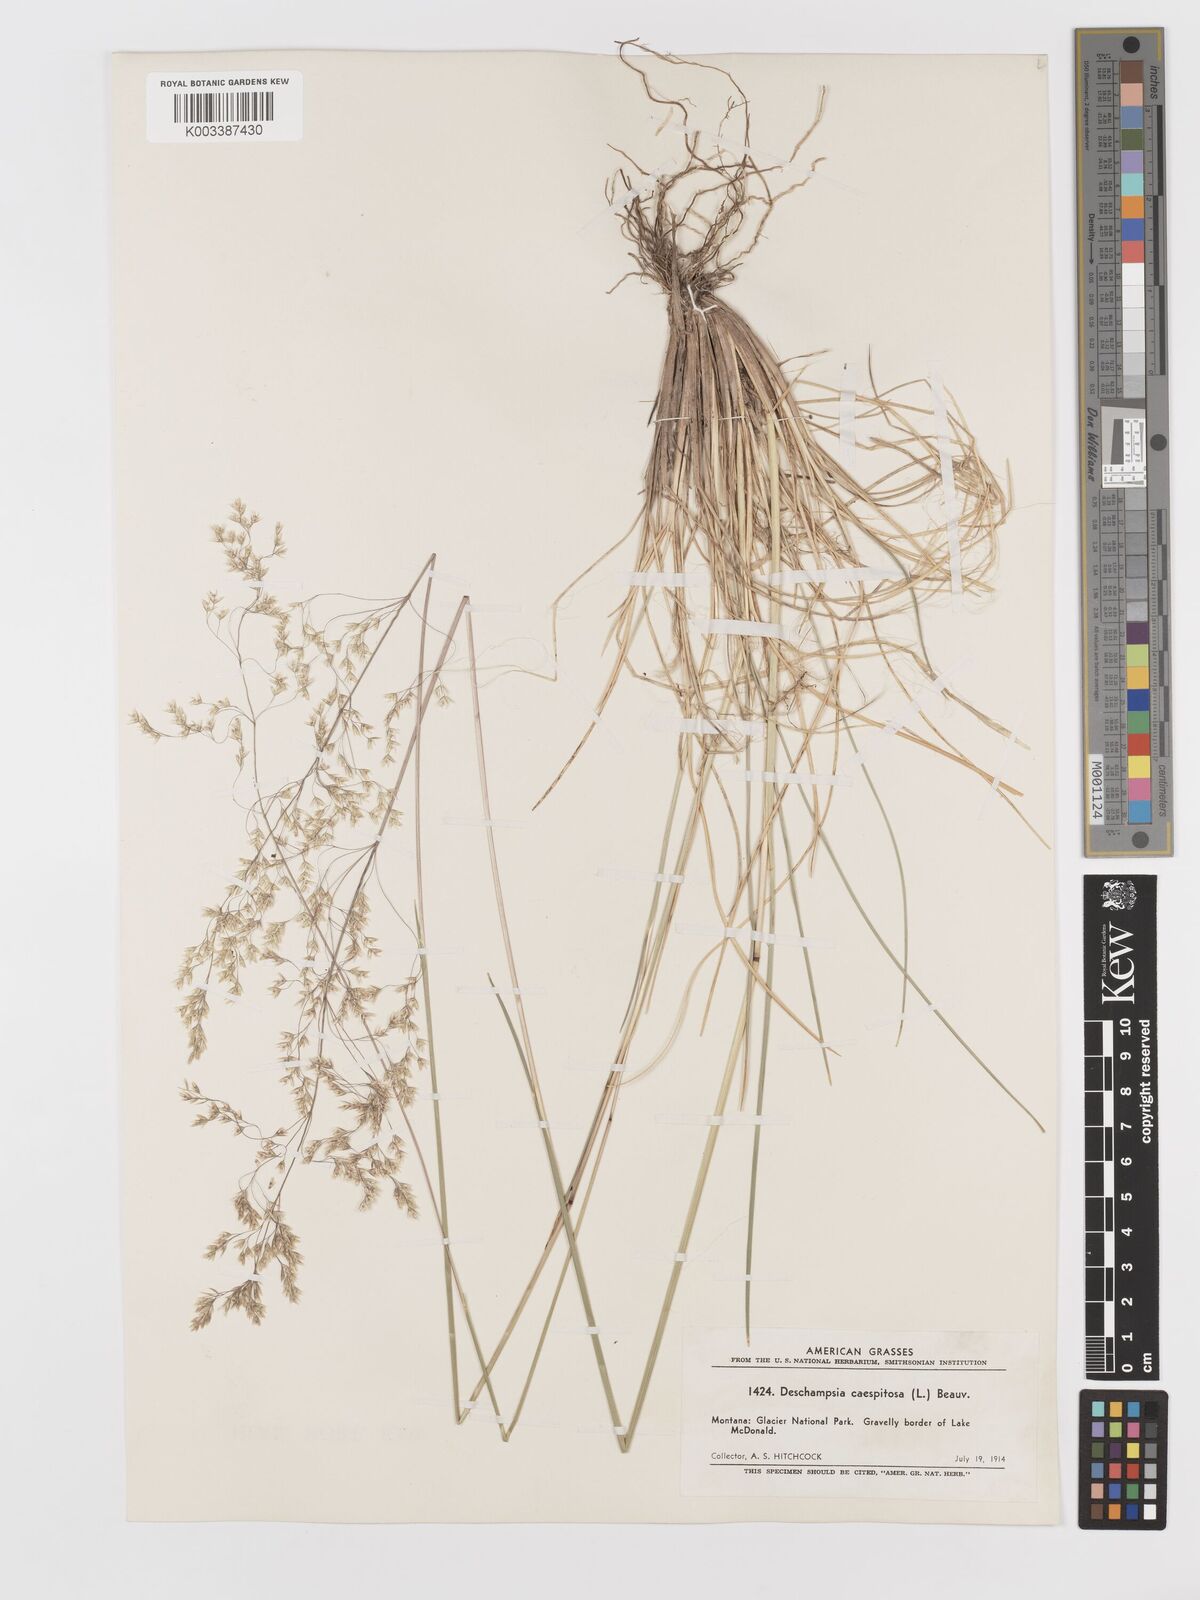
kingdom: Plantae
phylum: Tracheophyta
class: Liliopsida
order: Poales
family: Poaceae
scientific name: Poaceae
